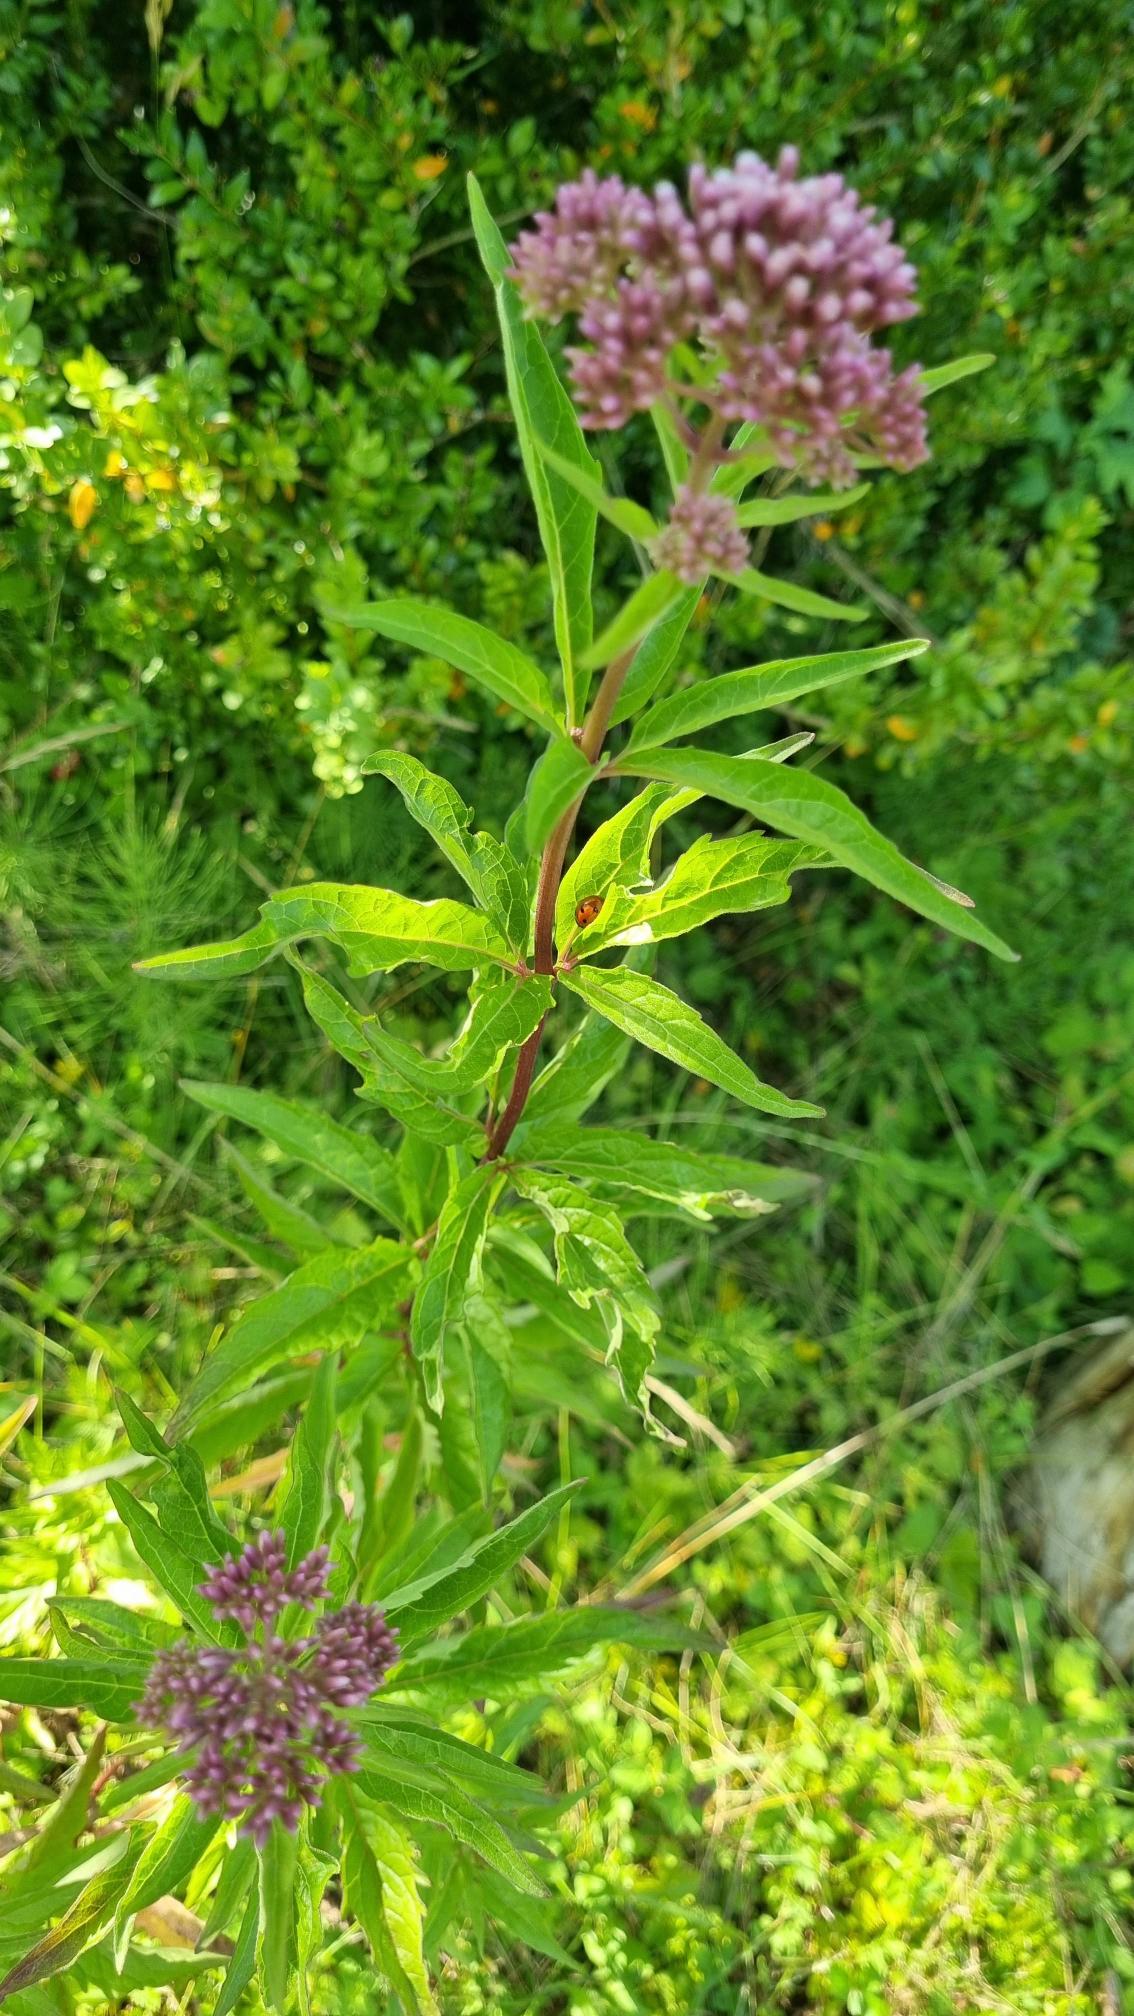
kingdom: Plantae
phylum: Tracheophyta
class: Magnoliopsida
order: Asterales
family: Asteraceae
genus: Eupatorium
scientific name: Eupatorium cannabinum
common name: Hjortetrøst
